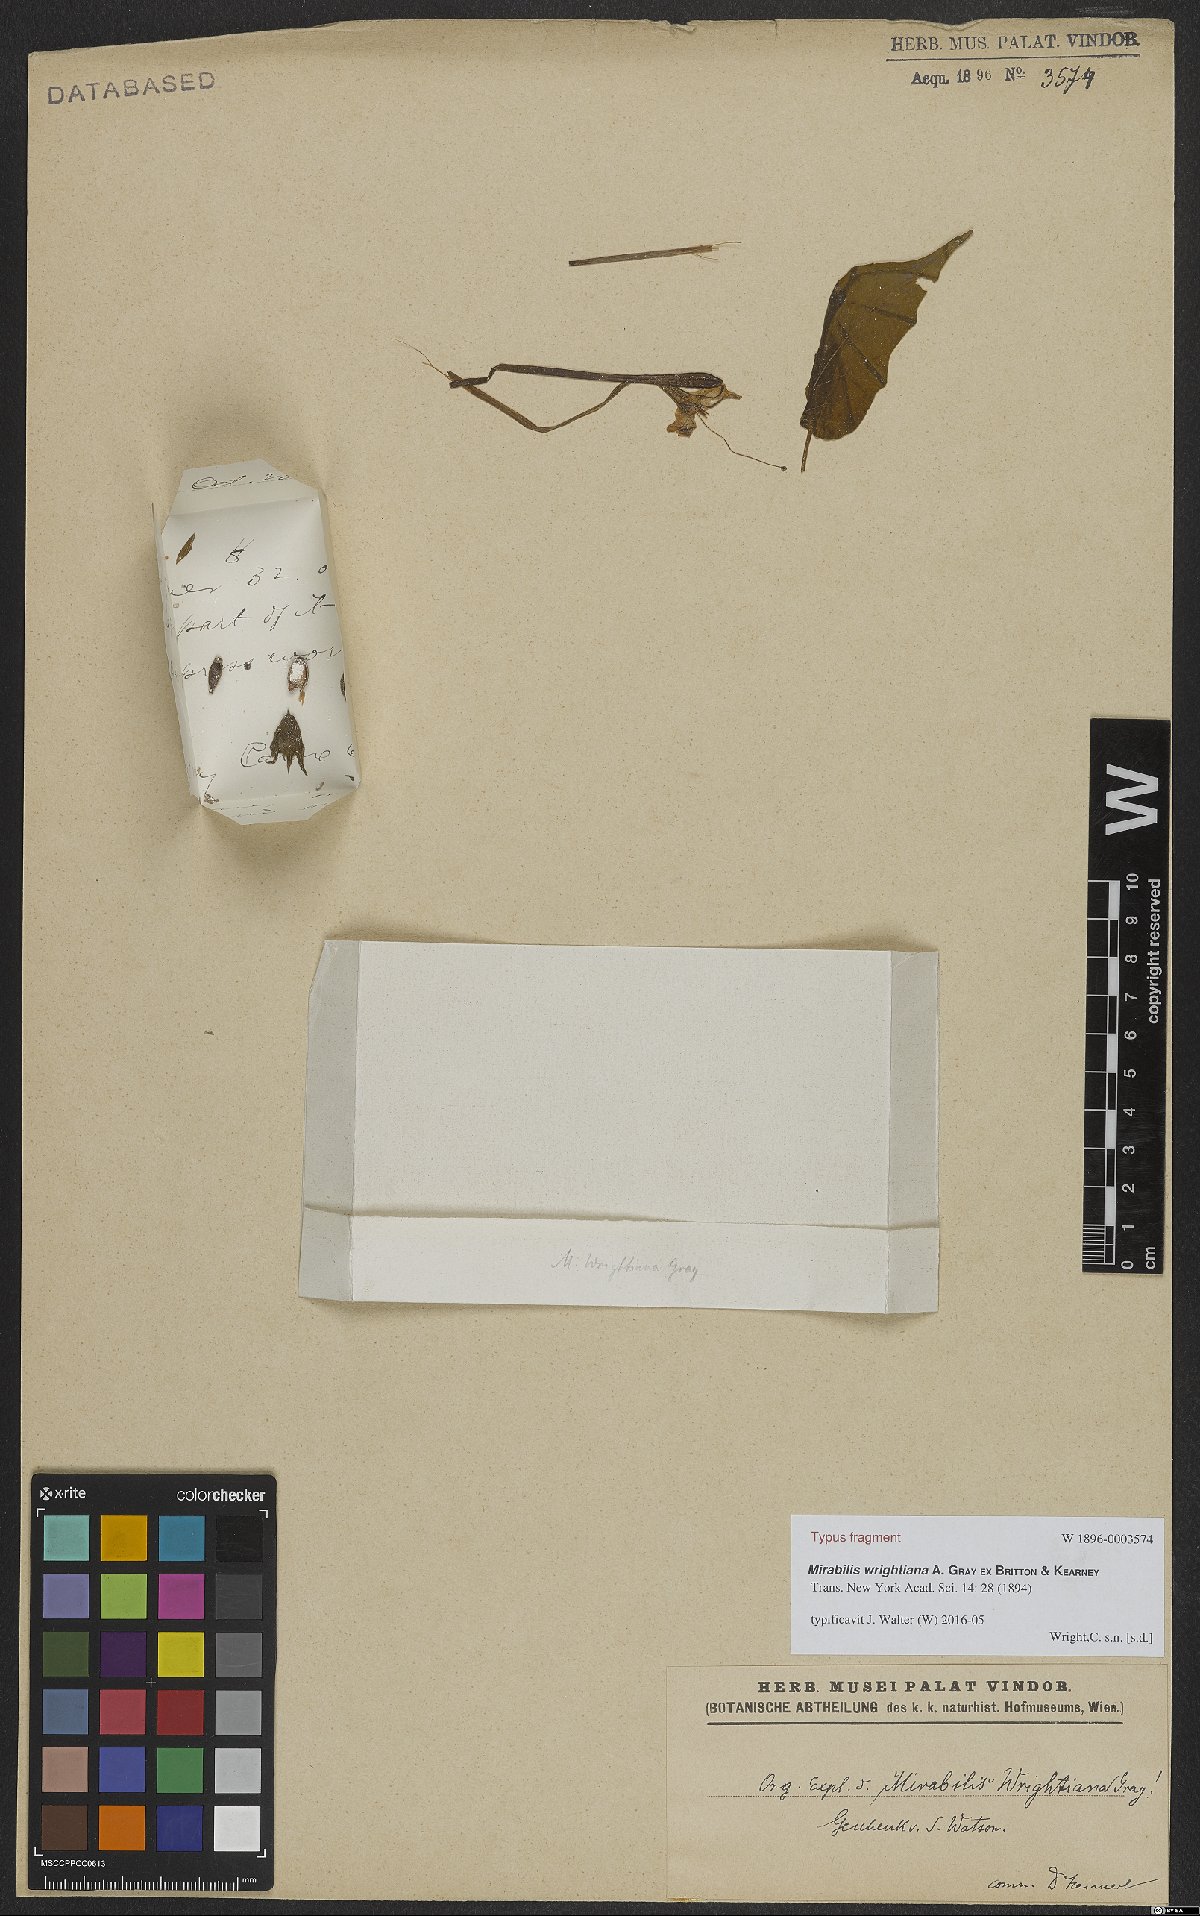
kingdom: Plantae
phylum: Tracheophyta
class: Magnoliopsida
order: Caryophyllales
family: Nyctaginaceae
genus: Mirabilis
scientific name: Mirabilis longiflora
